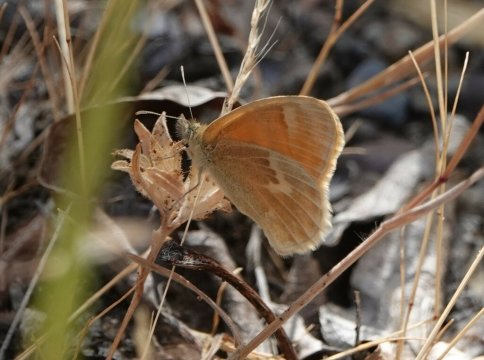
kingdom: Animalia
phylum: Arthropoda
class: Insecta
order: Lepidoptera
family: Nymphalidae
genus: Coenonympha
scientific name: Coenonympha tullia
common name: Large Heath
